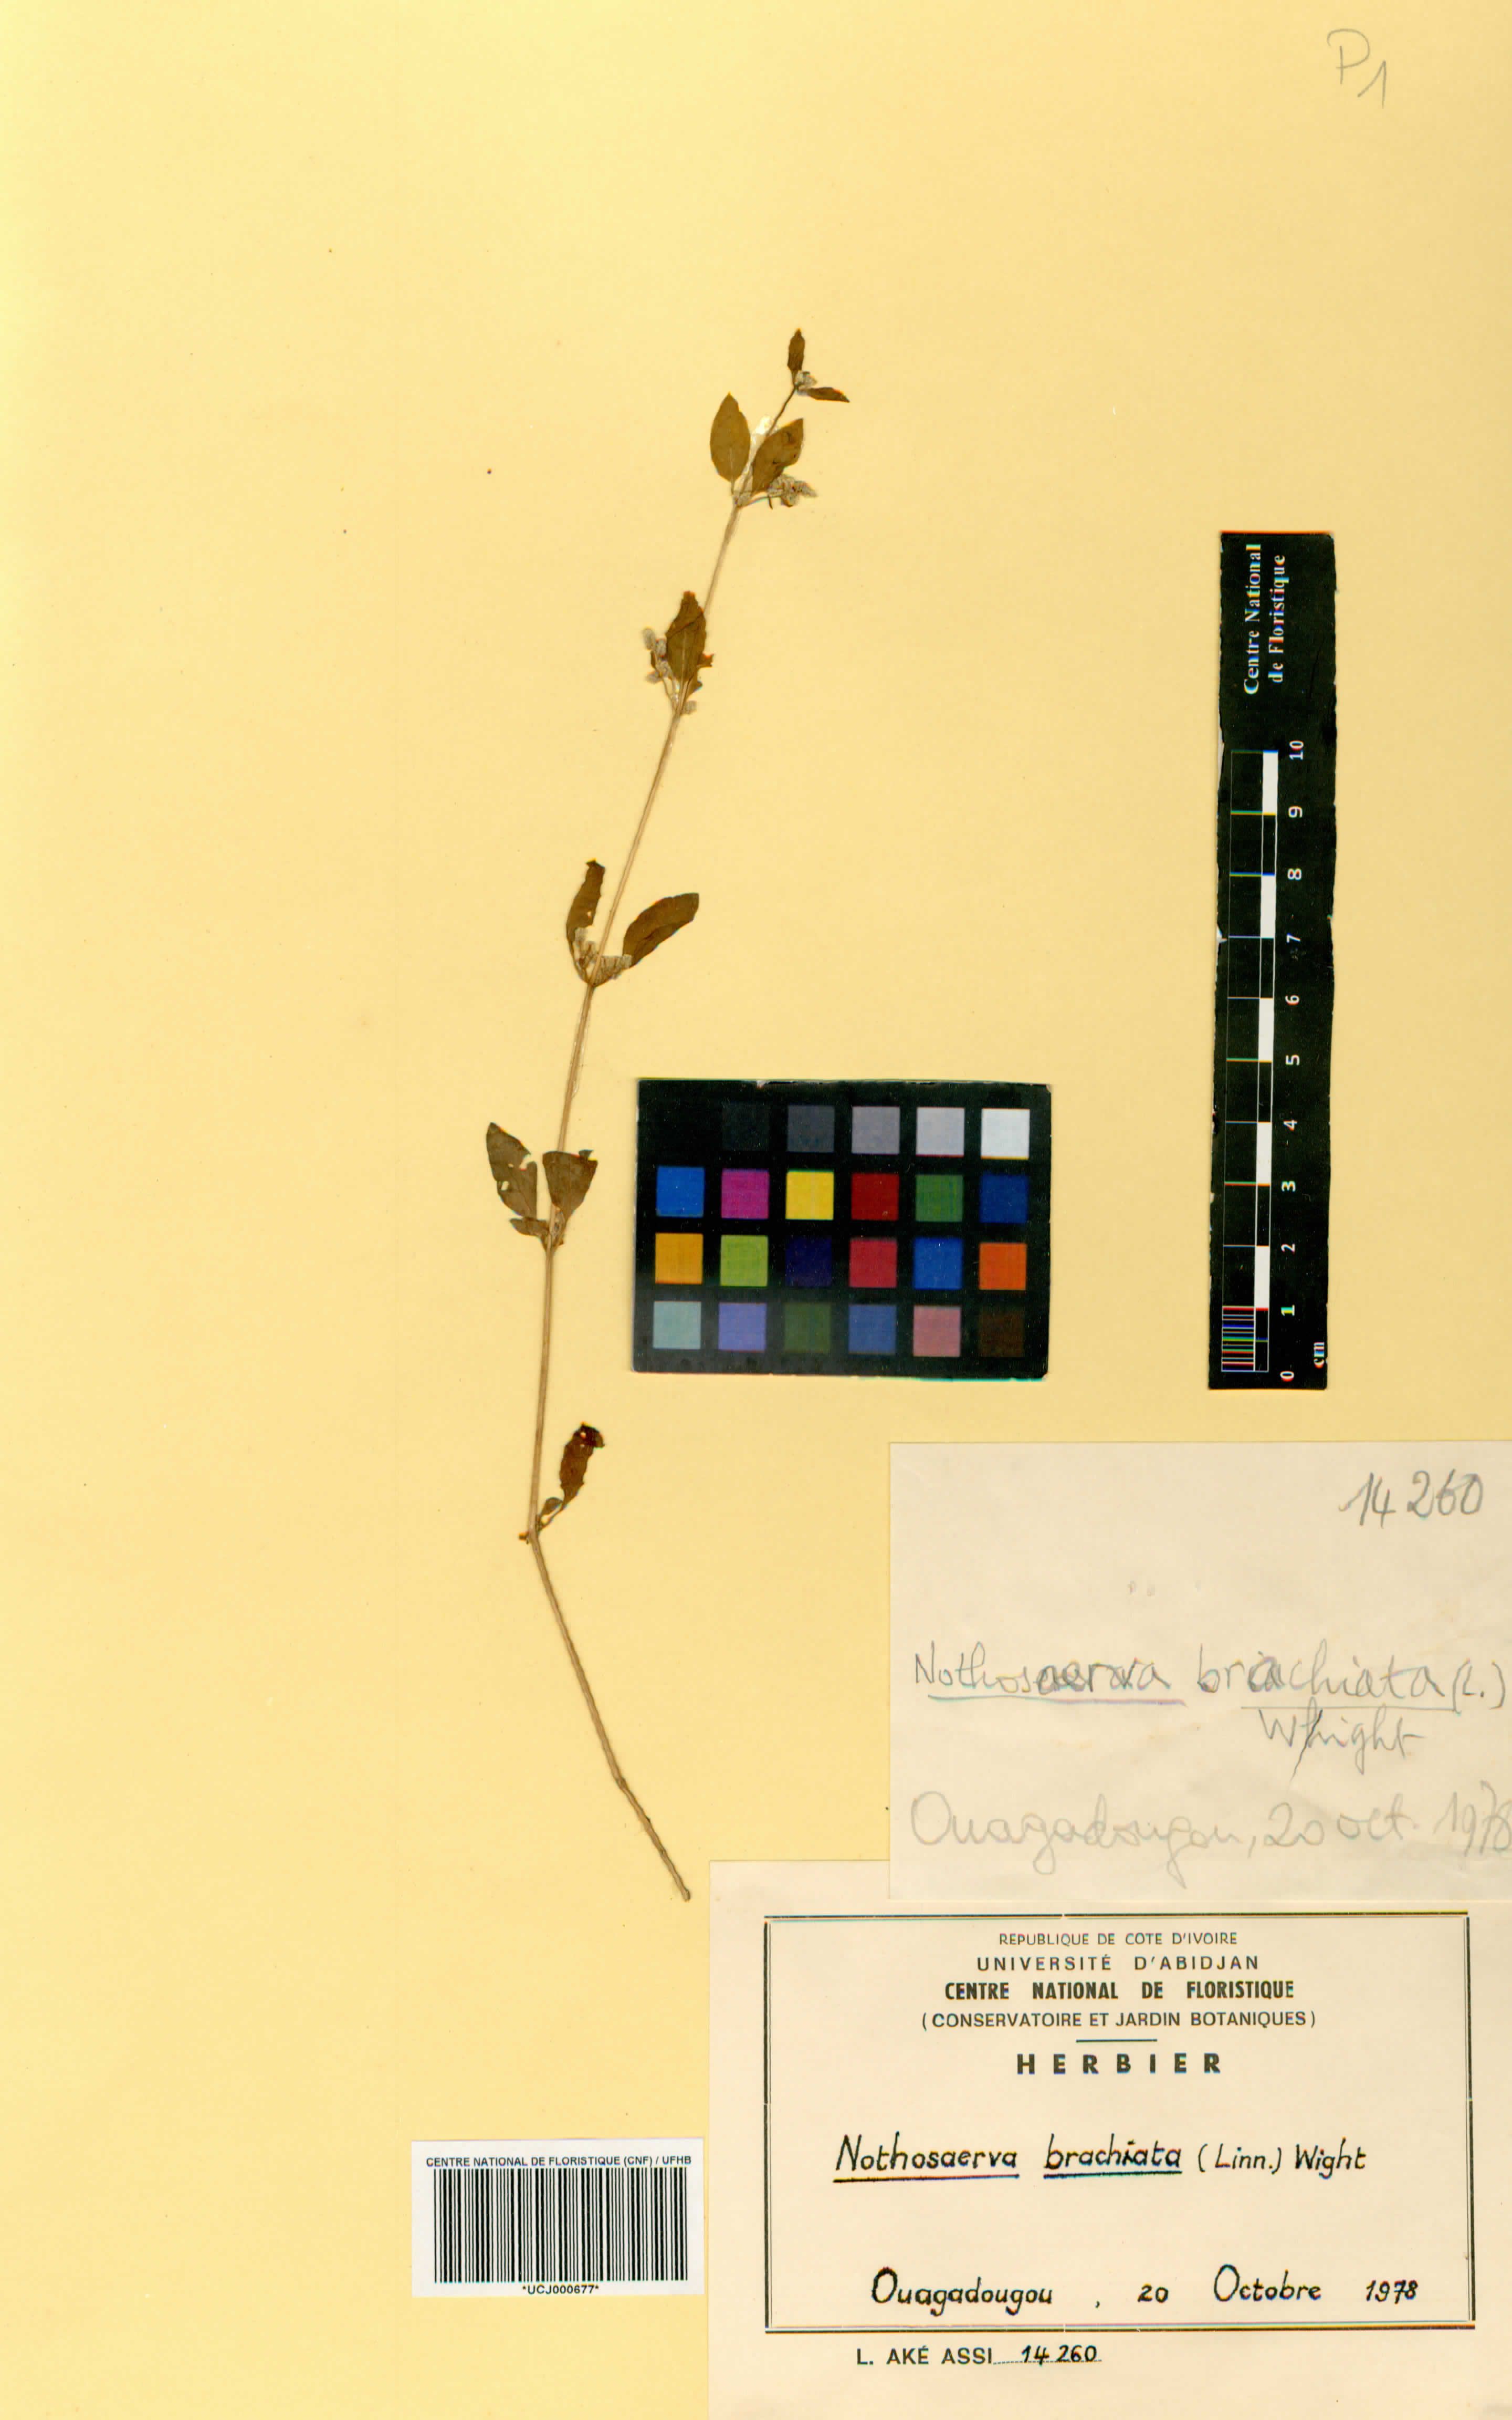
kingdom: Plantae
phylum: Tracheophyta
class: Magnoliopsida
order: Caryophyllales
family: Amaranthaceae
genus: Nothosaerva
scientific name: Nothosaerva brachiata
